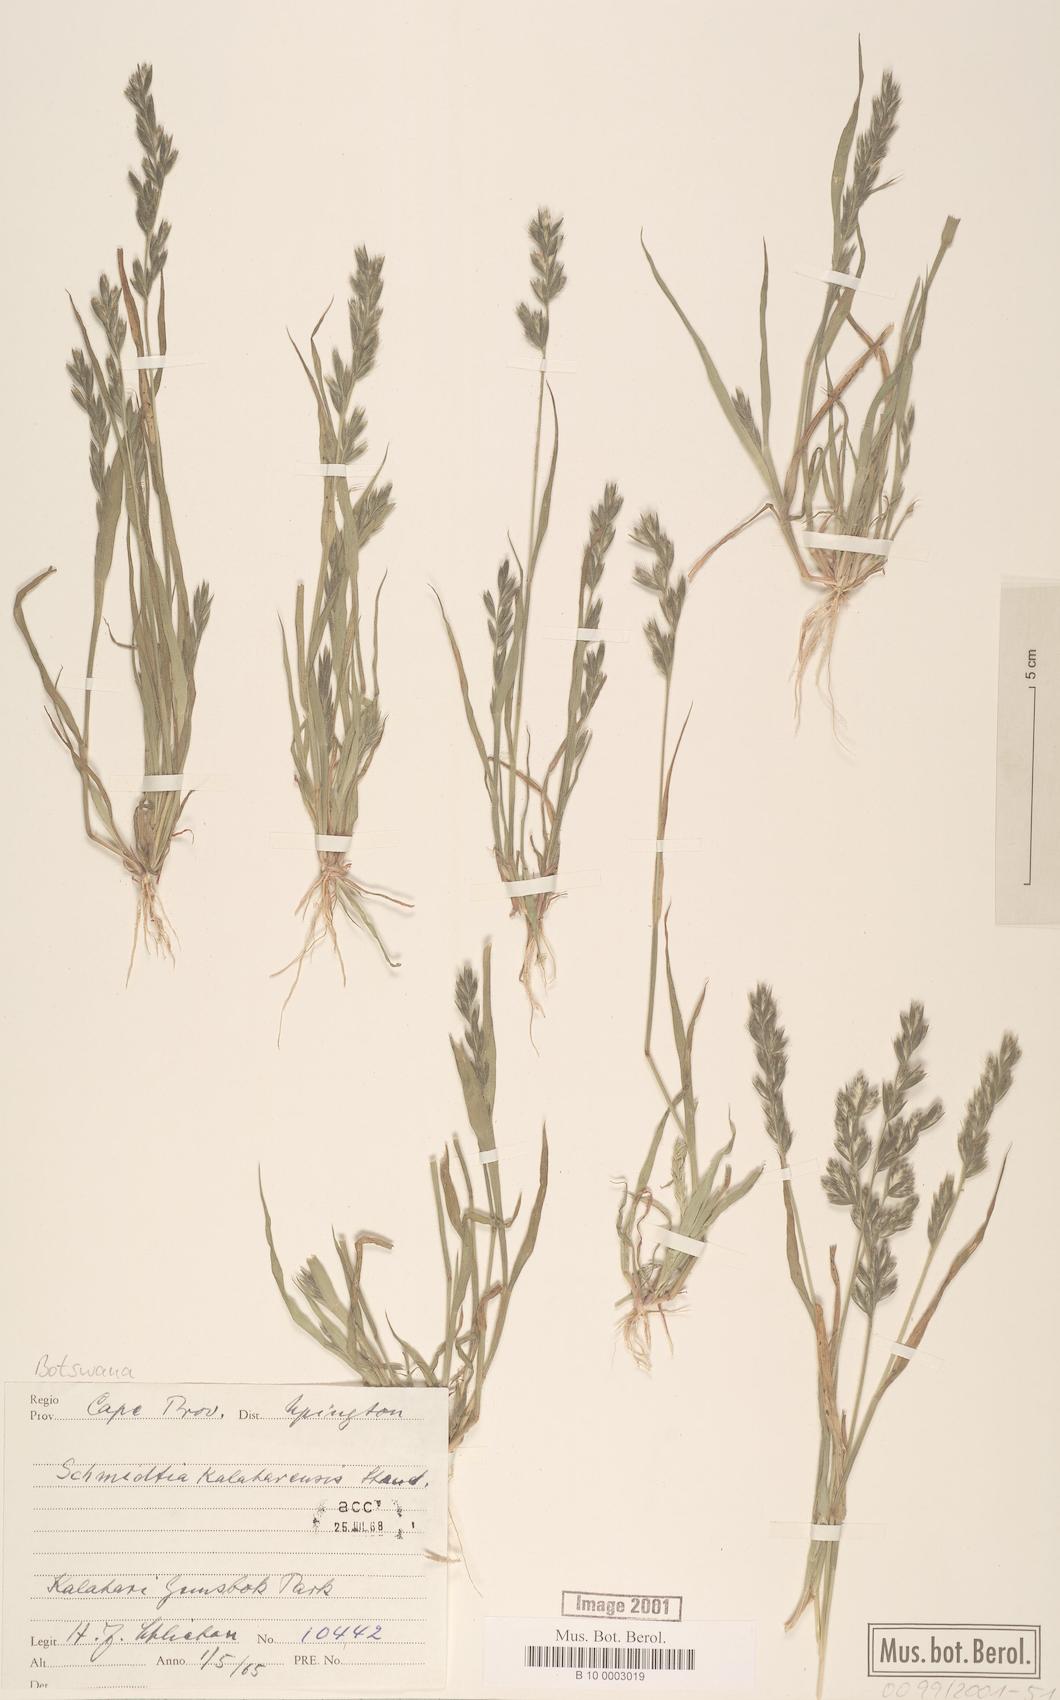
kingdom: Plantae
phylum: Tracheophyta
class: Liliopsida
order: Poales
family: Poaceae
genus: Schmidtia
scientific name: Schmidtia kalahariensis
